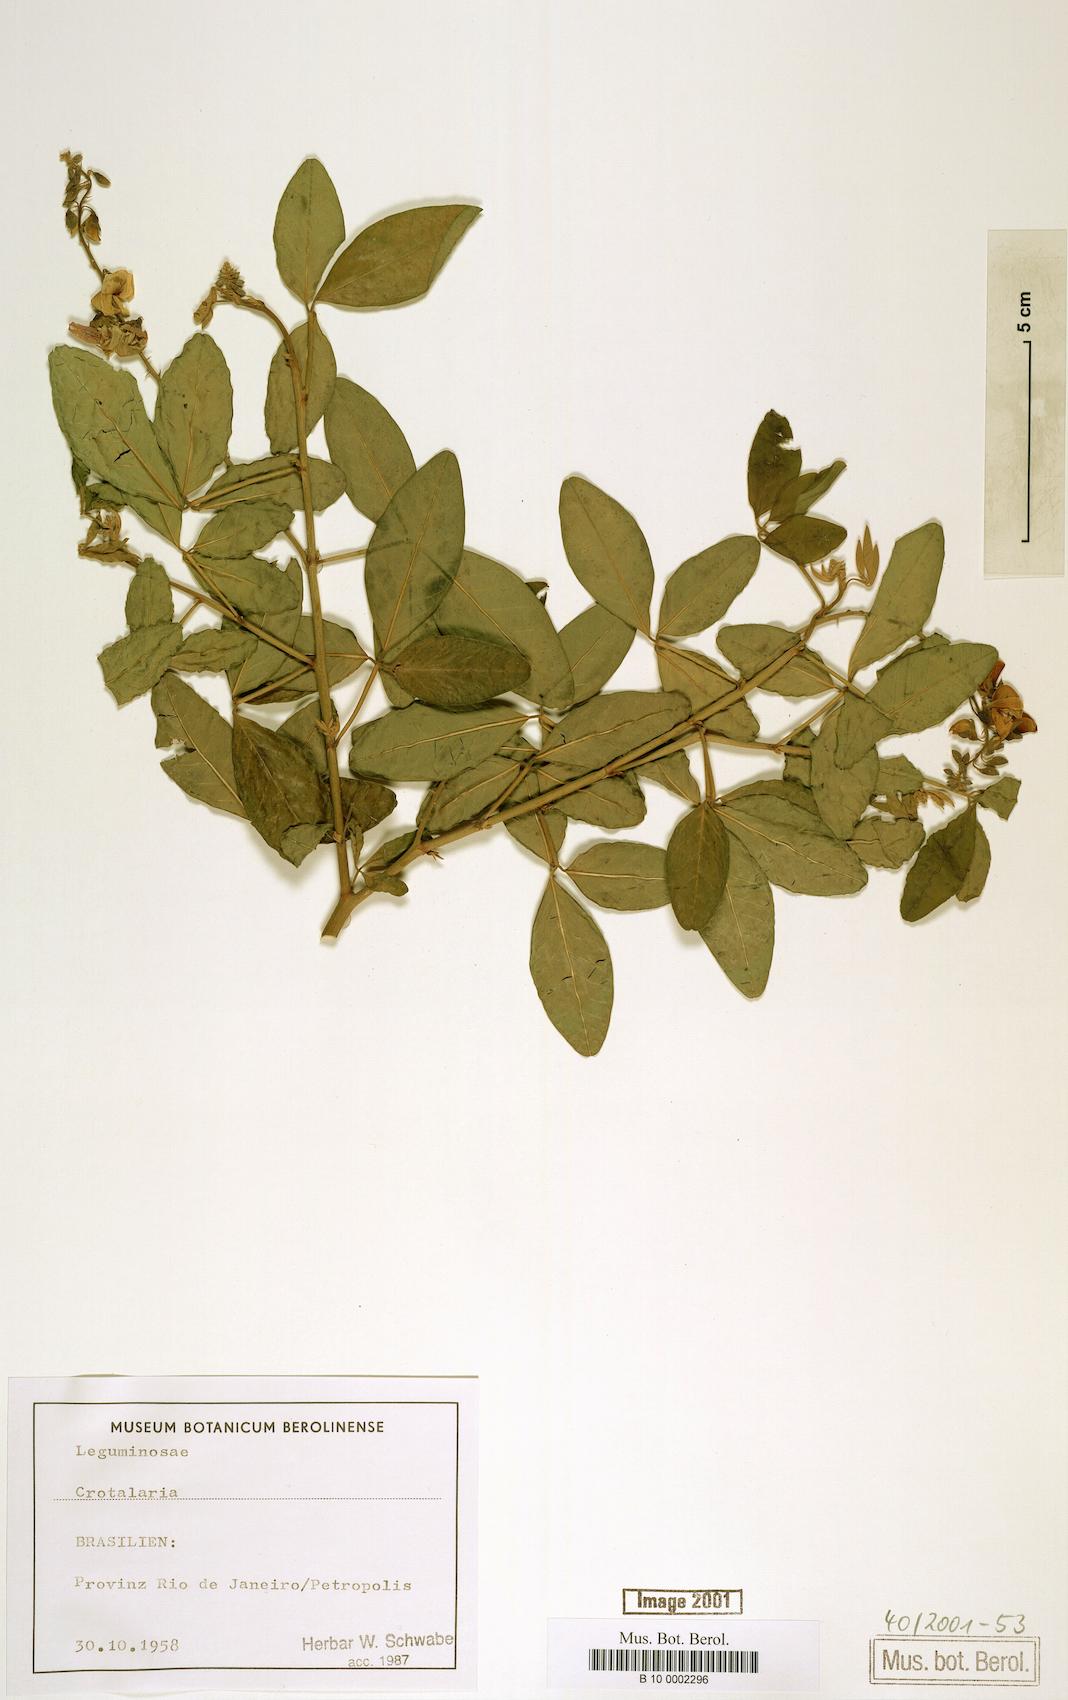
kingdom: Plantae
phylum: Tracheophyta
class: Magnoliopsida
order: Fabales
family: Fabaceae
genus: Crotalaria
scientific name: Crotalaria vitellina
